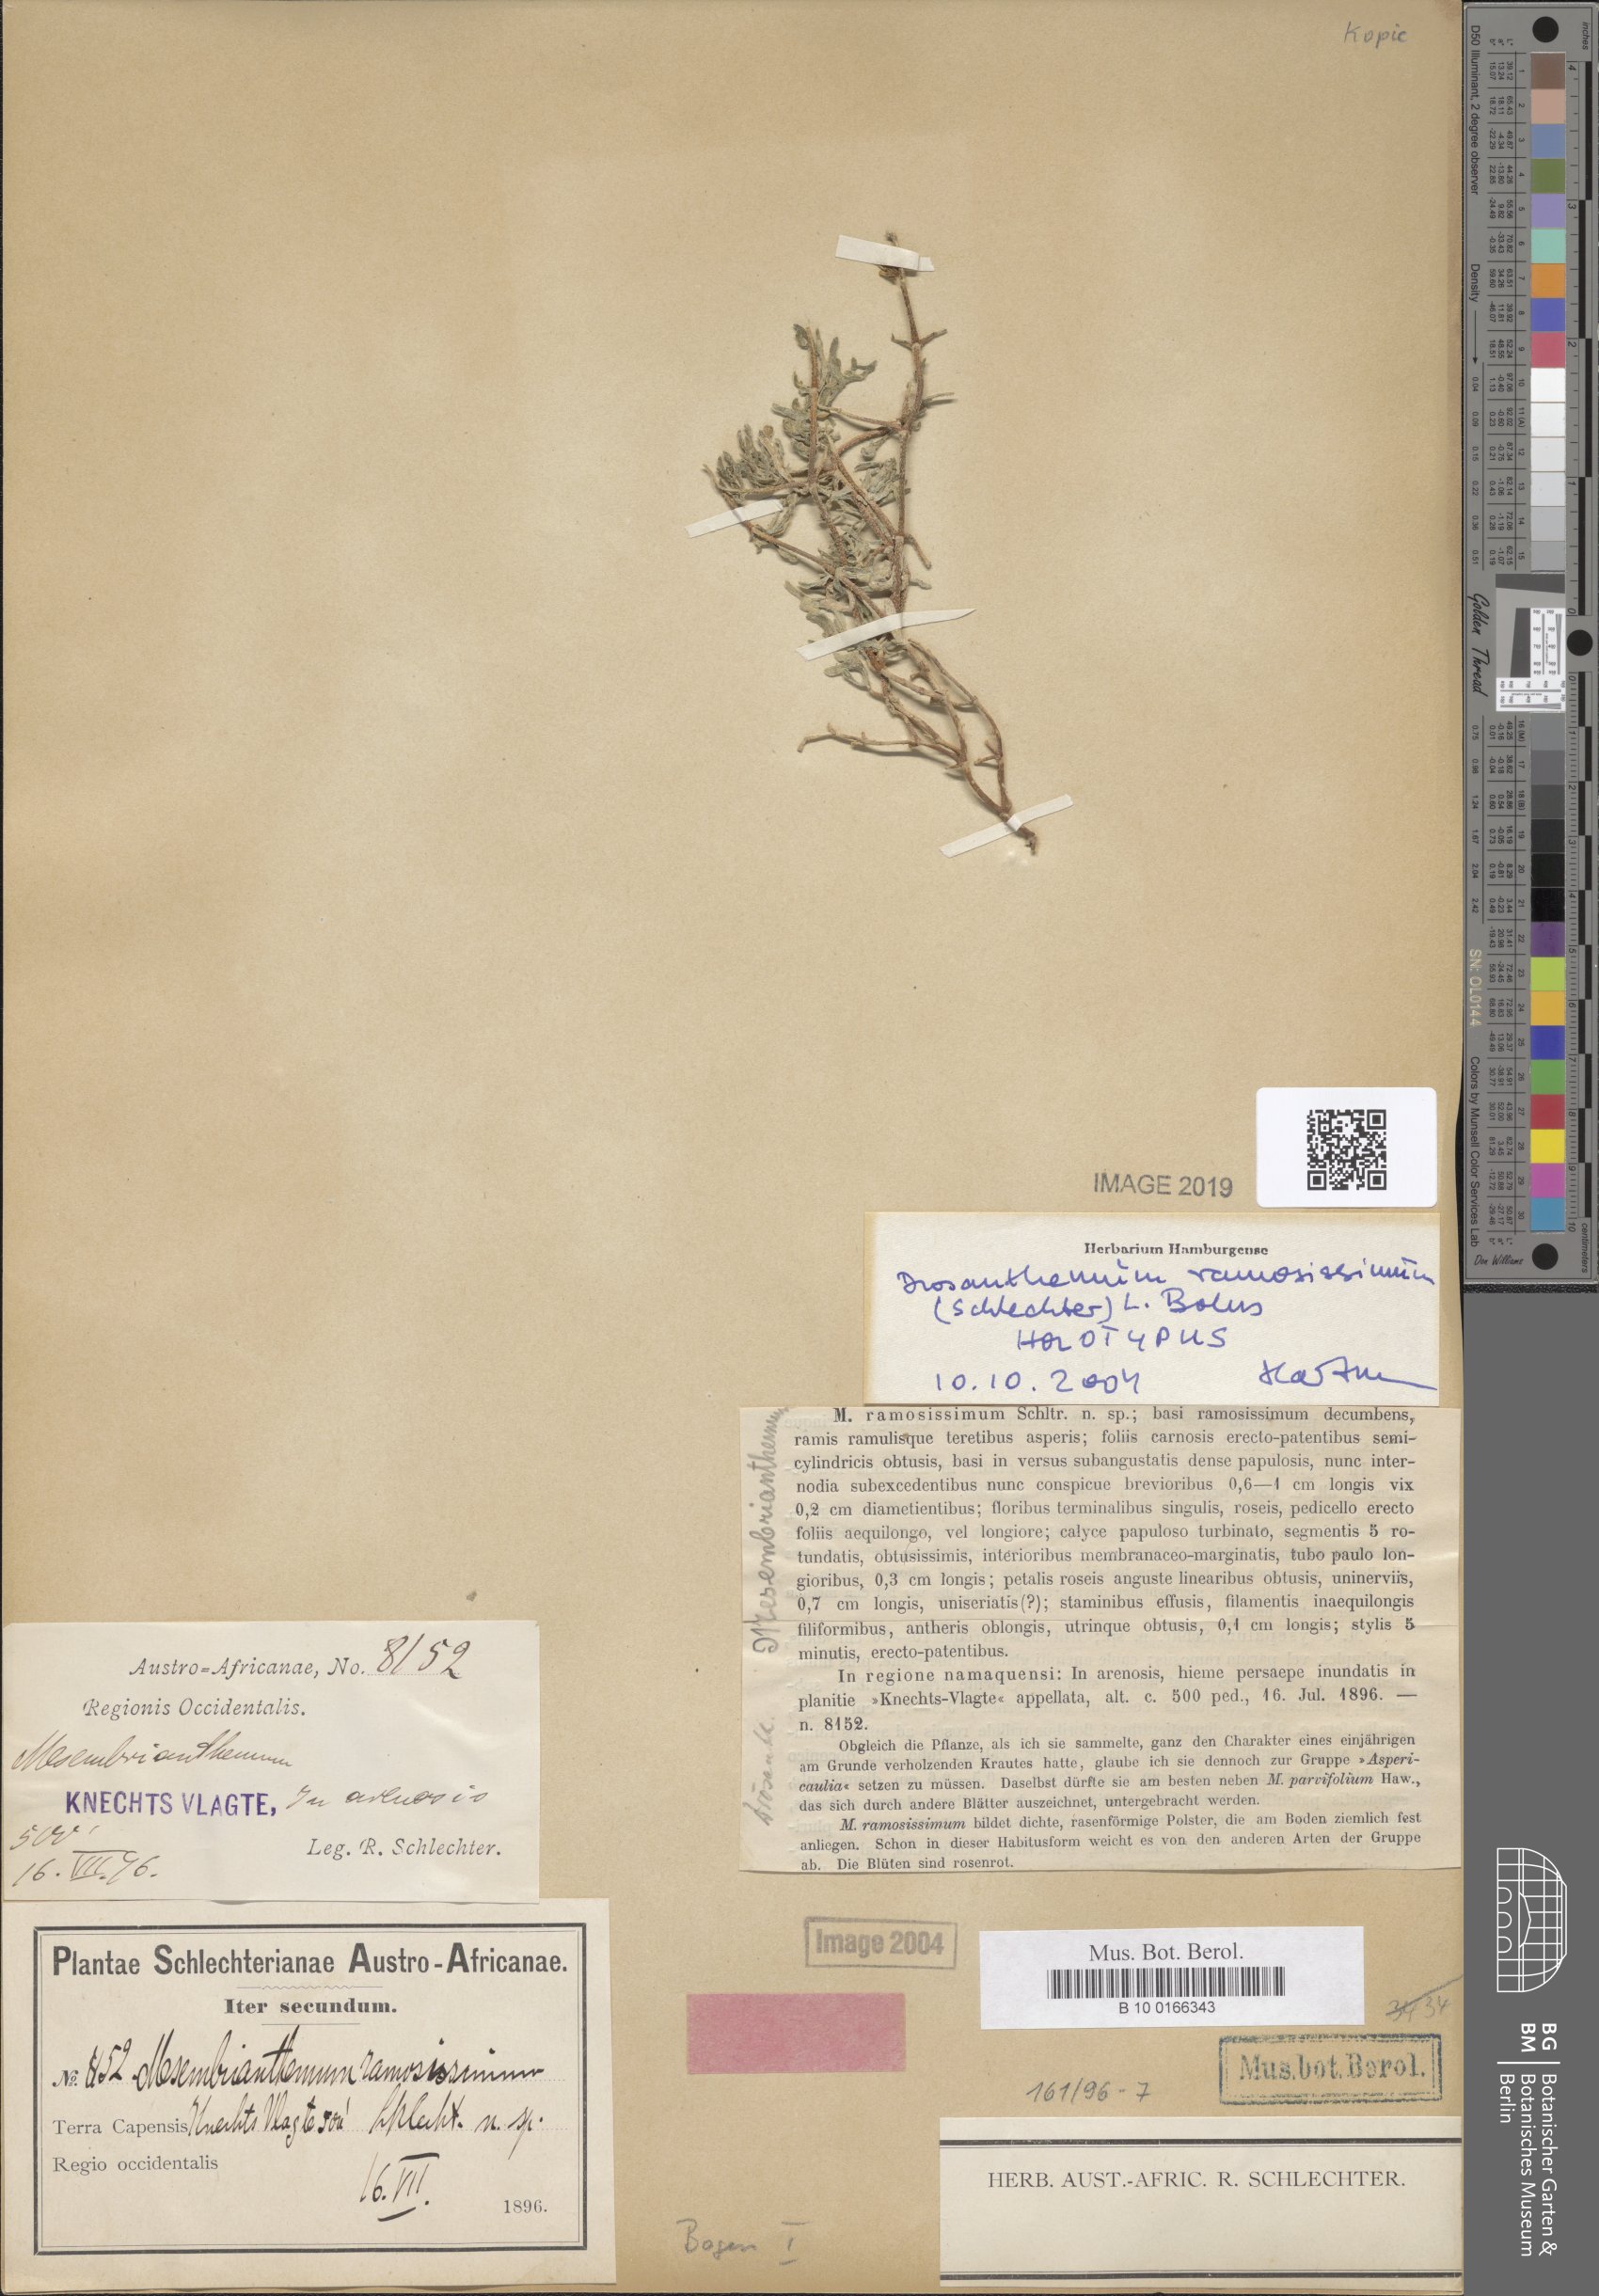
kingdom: Plantae
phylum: Tracheophyta
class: Magnoliopsida
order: Caryophyllales
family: Aizoaceae
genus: Drosanthemum
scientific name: Drosanthemum ramosissimum
